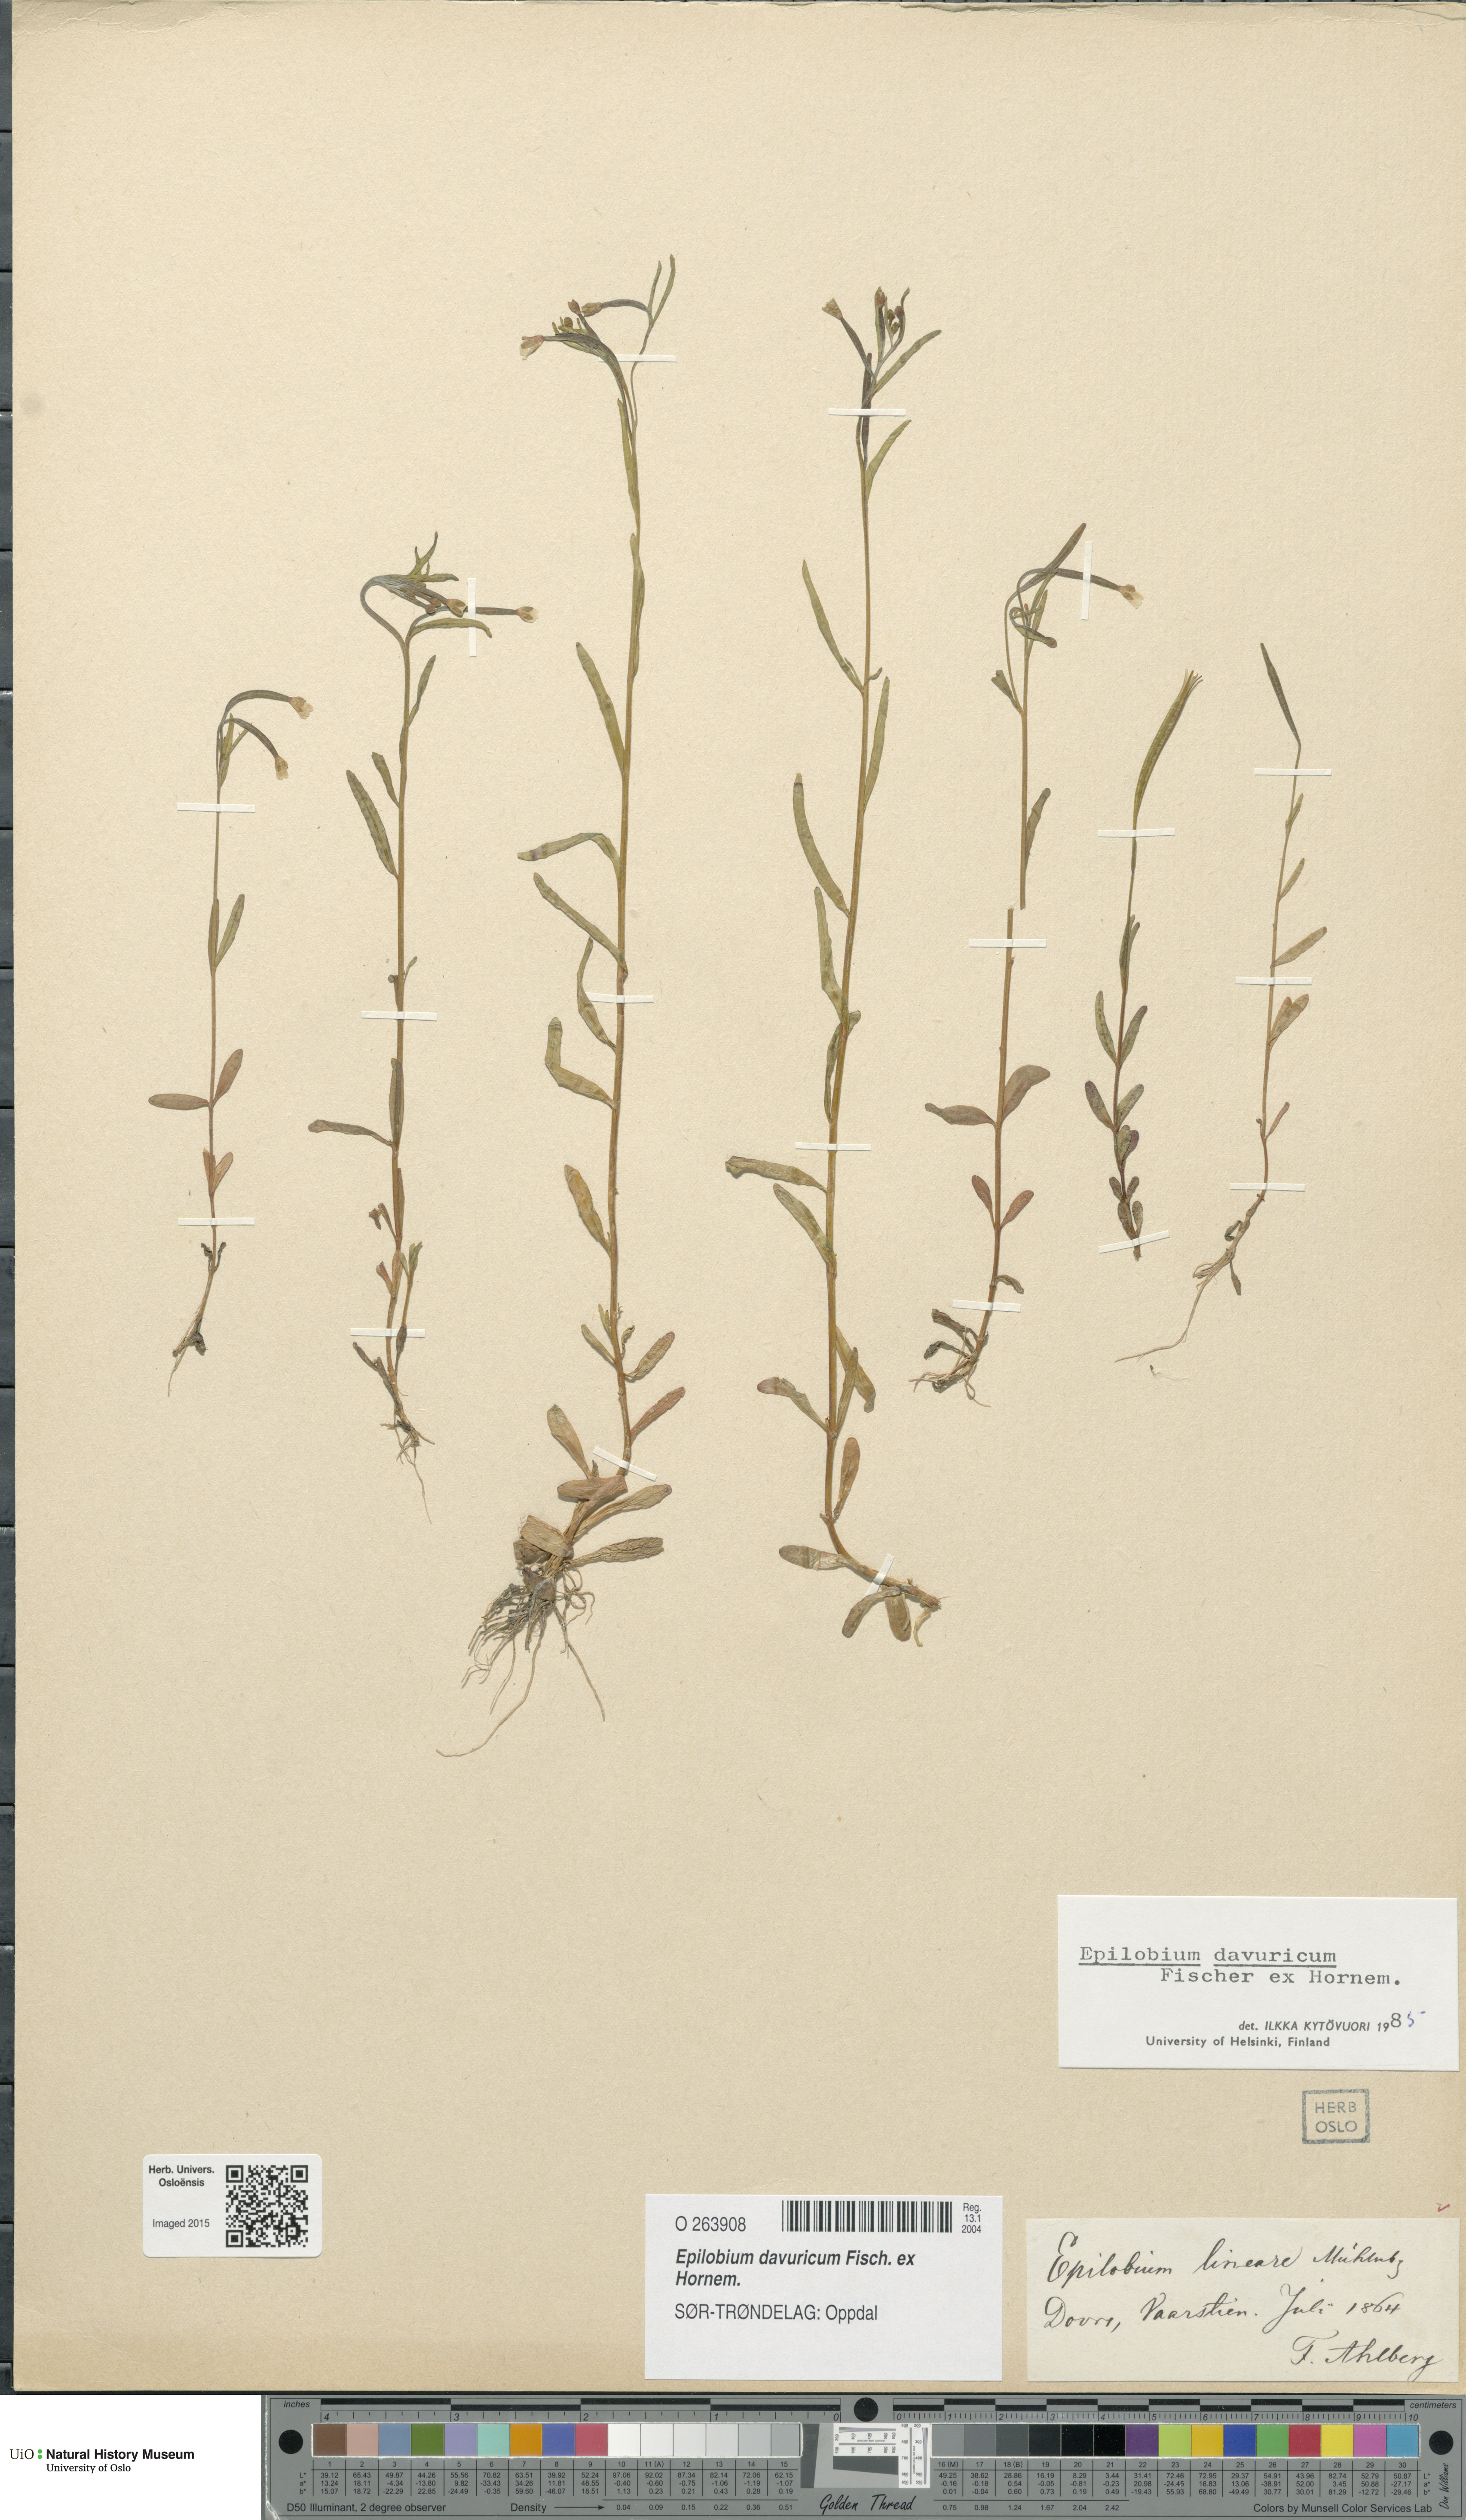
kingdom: Plantae
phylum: Tracheophyta
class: Magnoliopsida
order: Myrtales
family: Onagraceae
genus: Epilobium
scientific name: Epilobium davuricum
